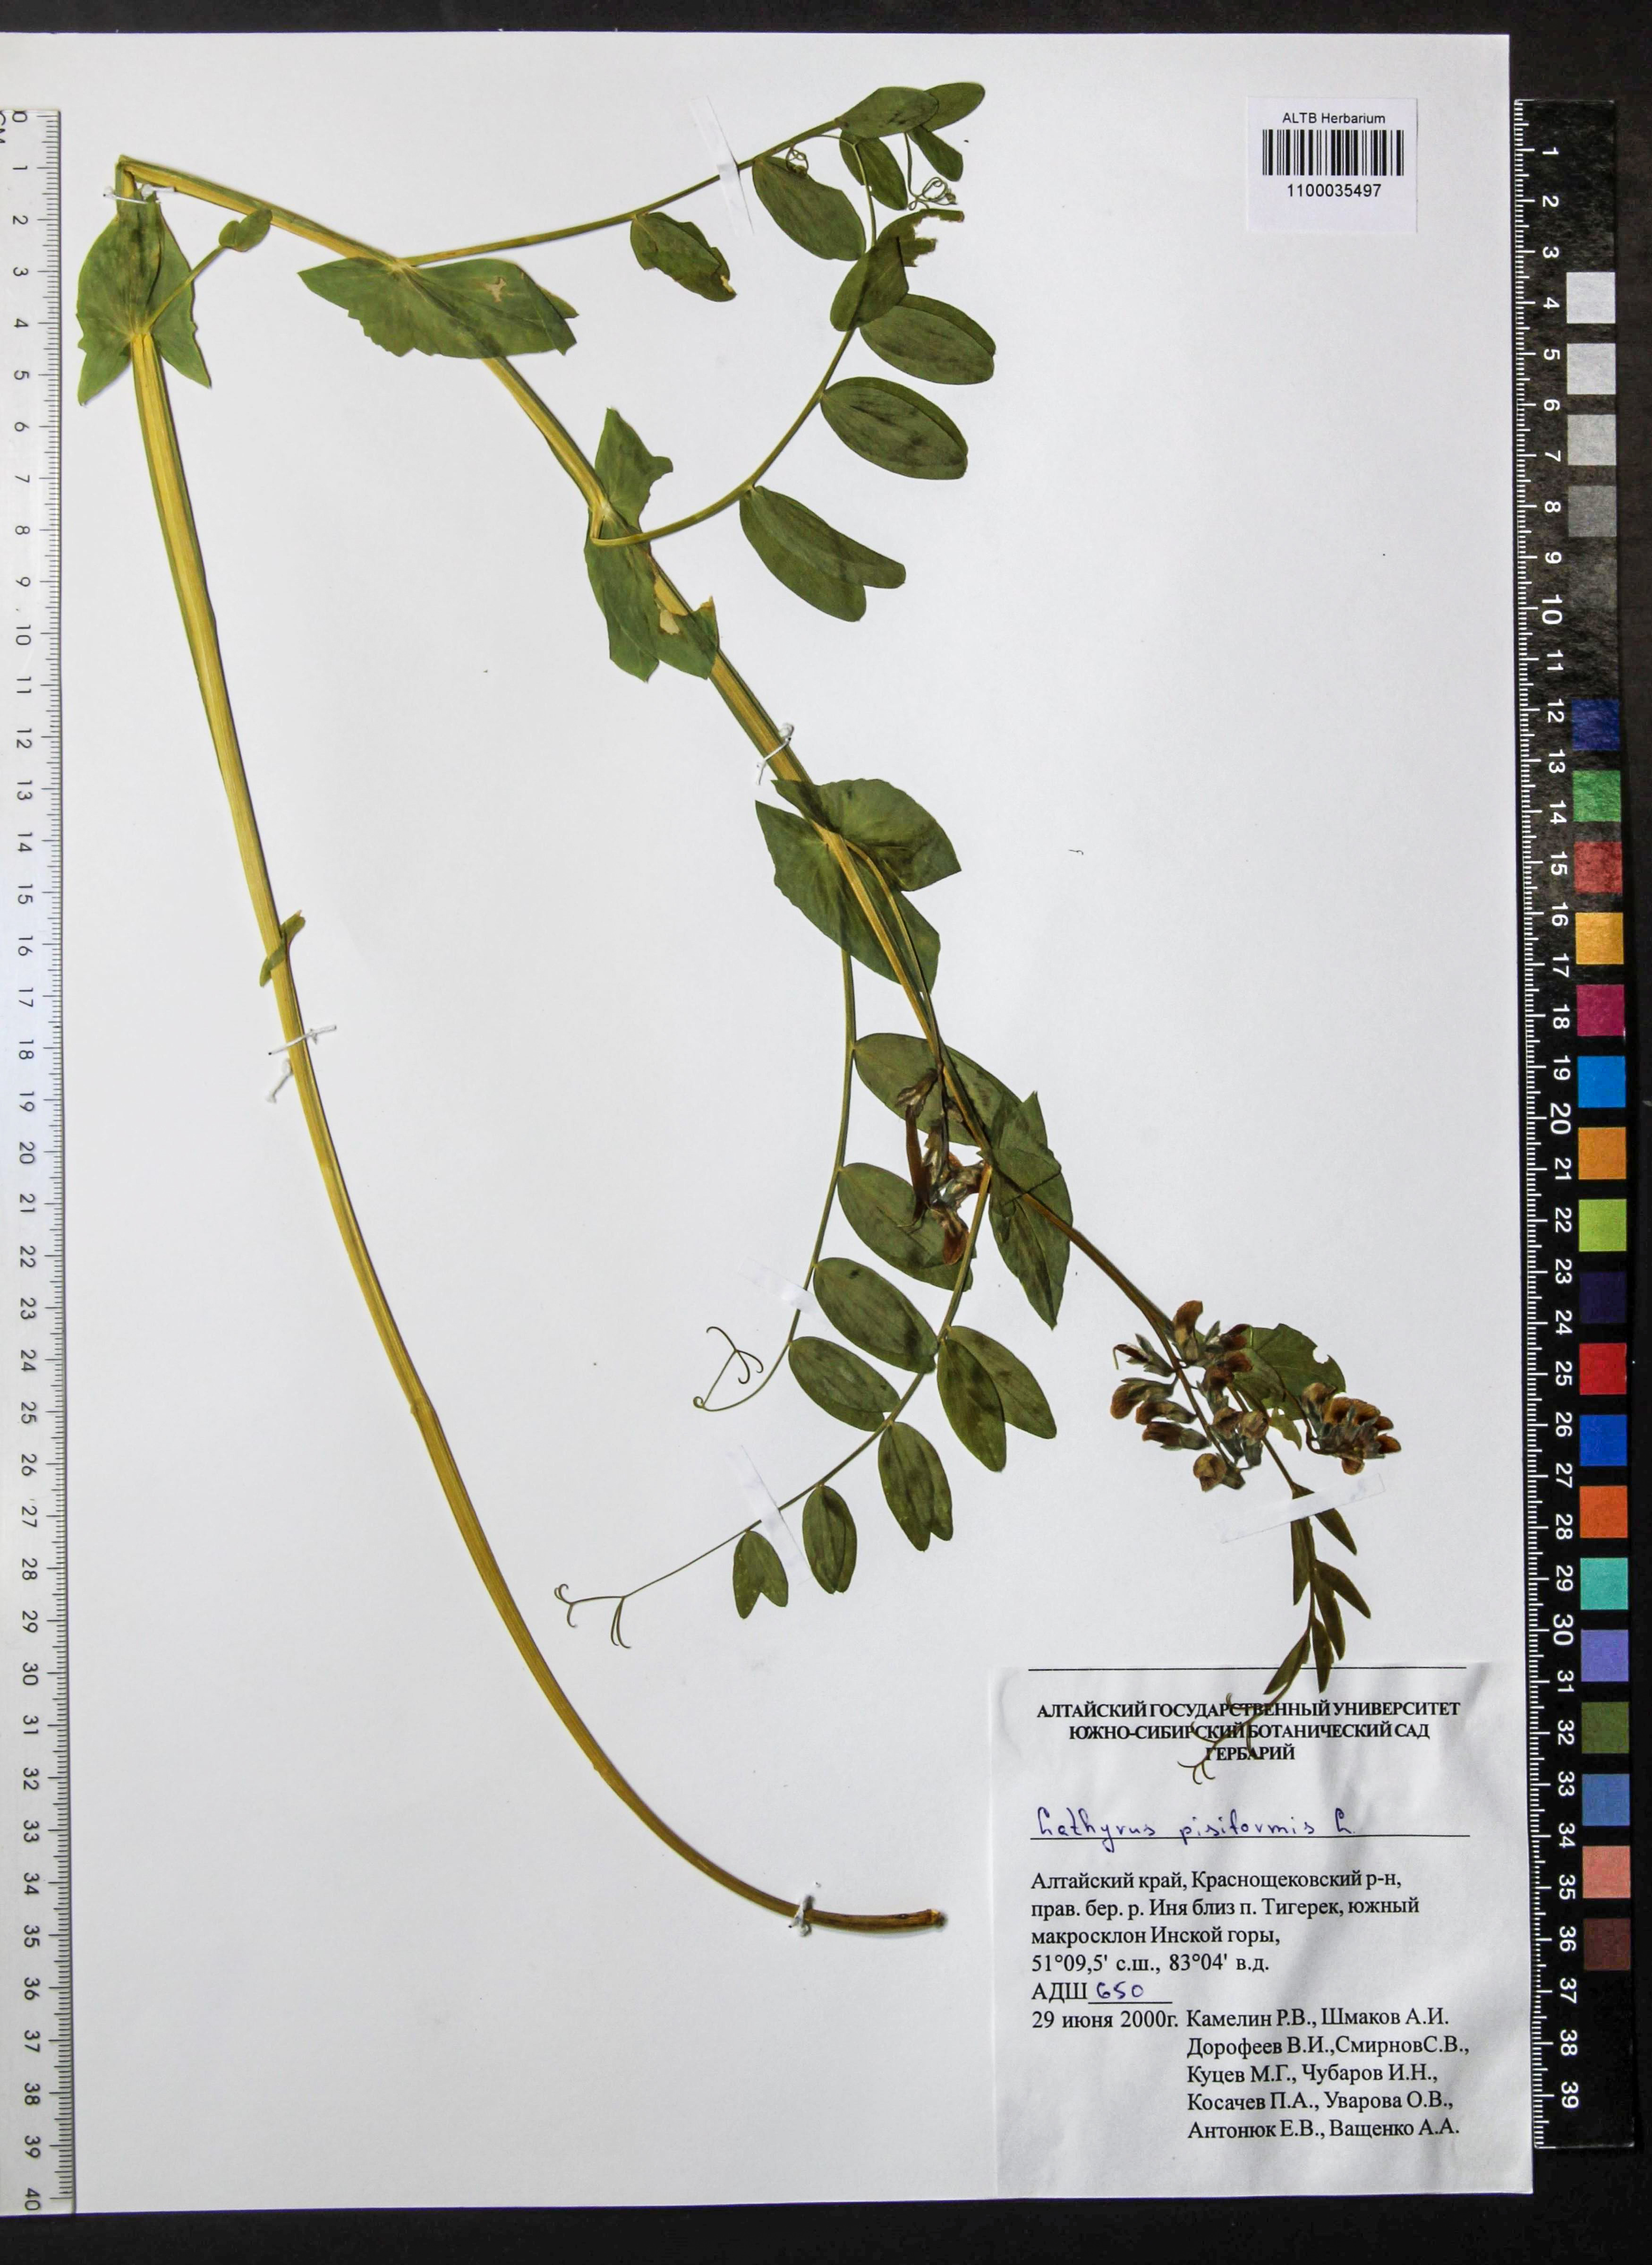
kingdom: Plantae
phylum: Tracheophyta
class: Magnoliopsida
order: Fabales
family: Fabaceae
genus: Lathyrus
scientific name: Lathyrus pisiformis
